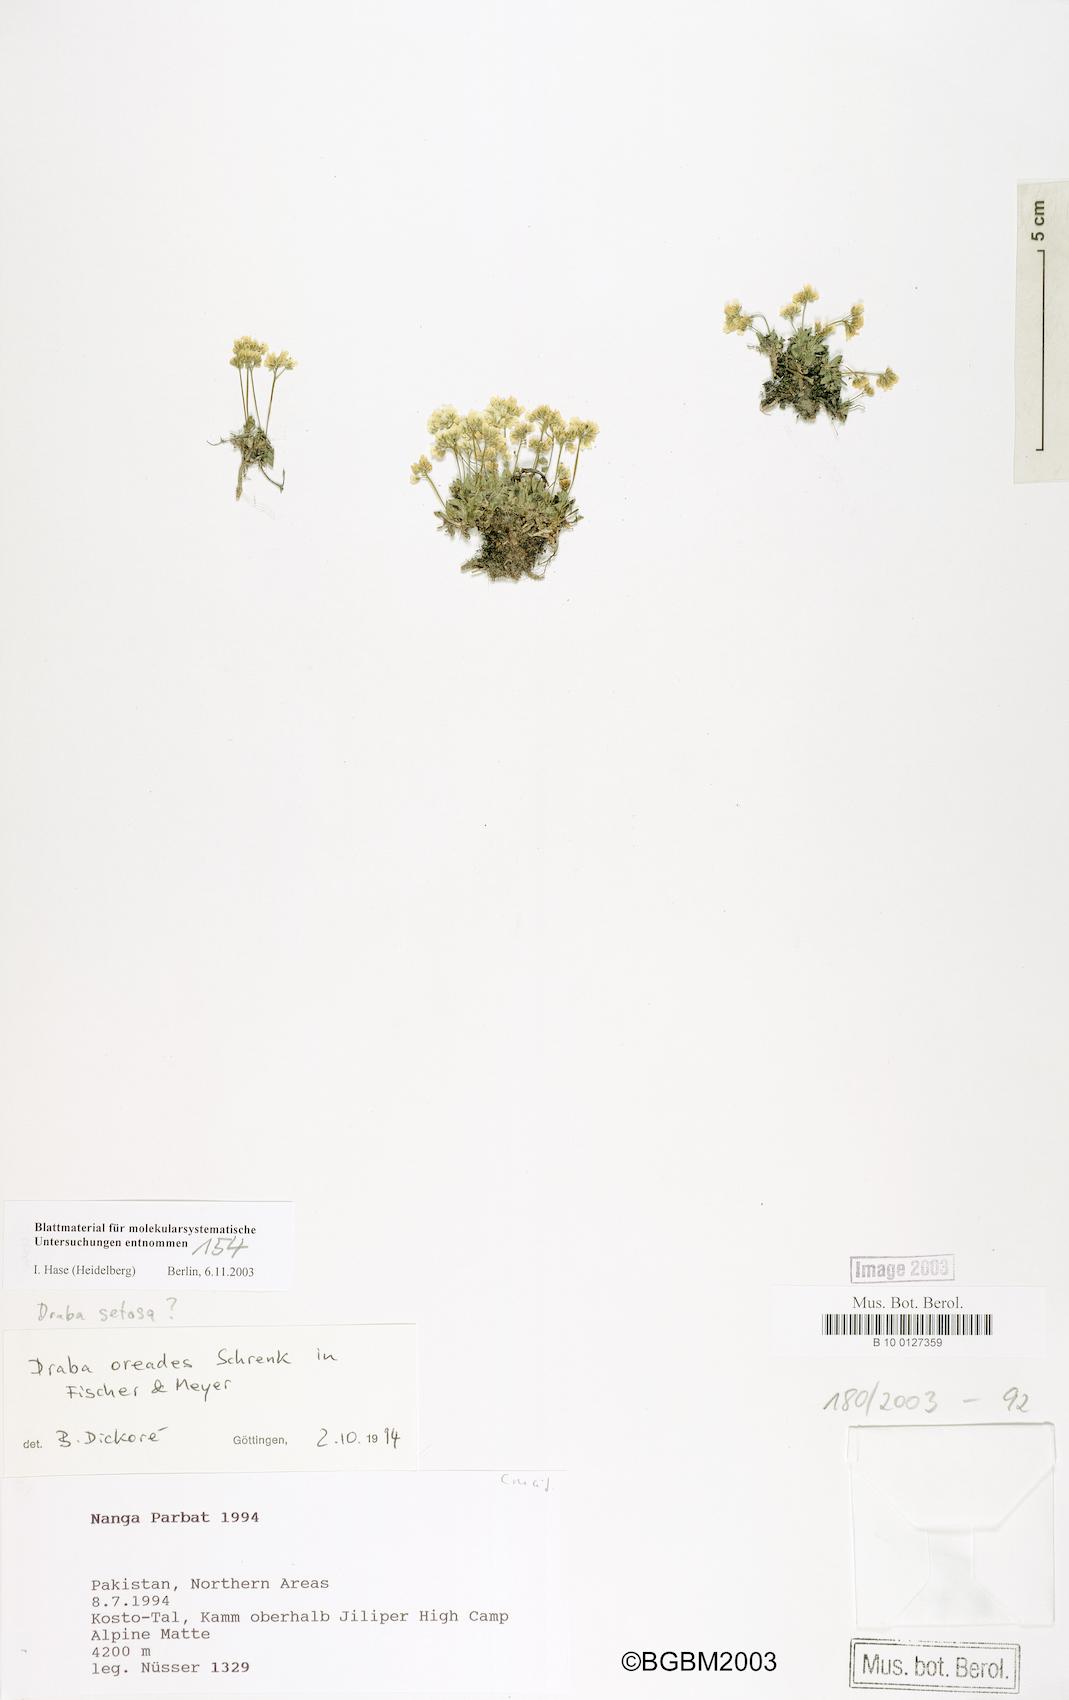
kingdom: Plantae
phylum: Tracheophyta
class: Magnoliopsida
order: Brassicales
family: Brassicaceae
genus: Draba
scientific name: Draba oreades
